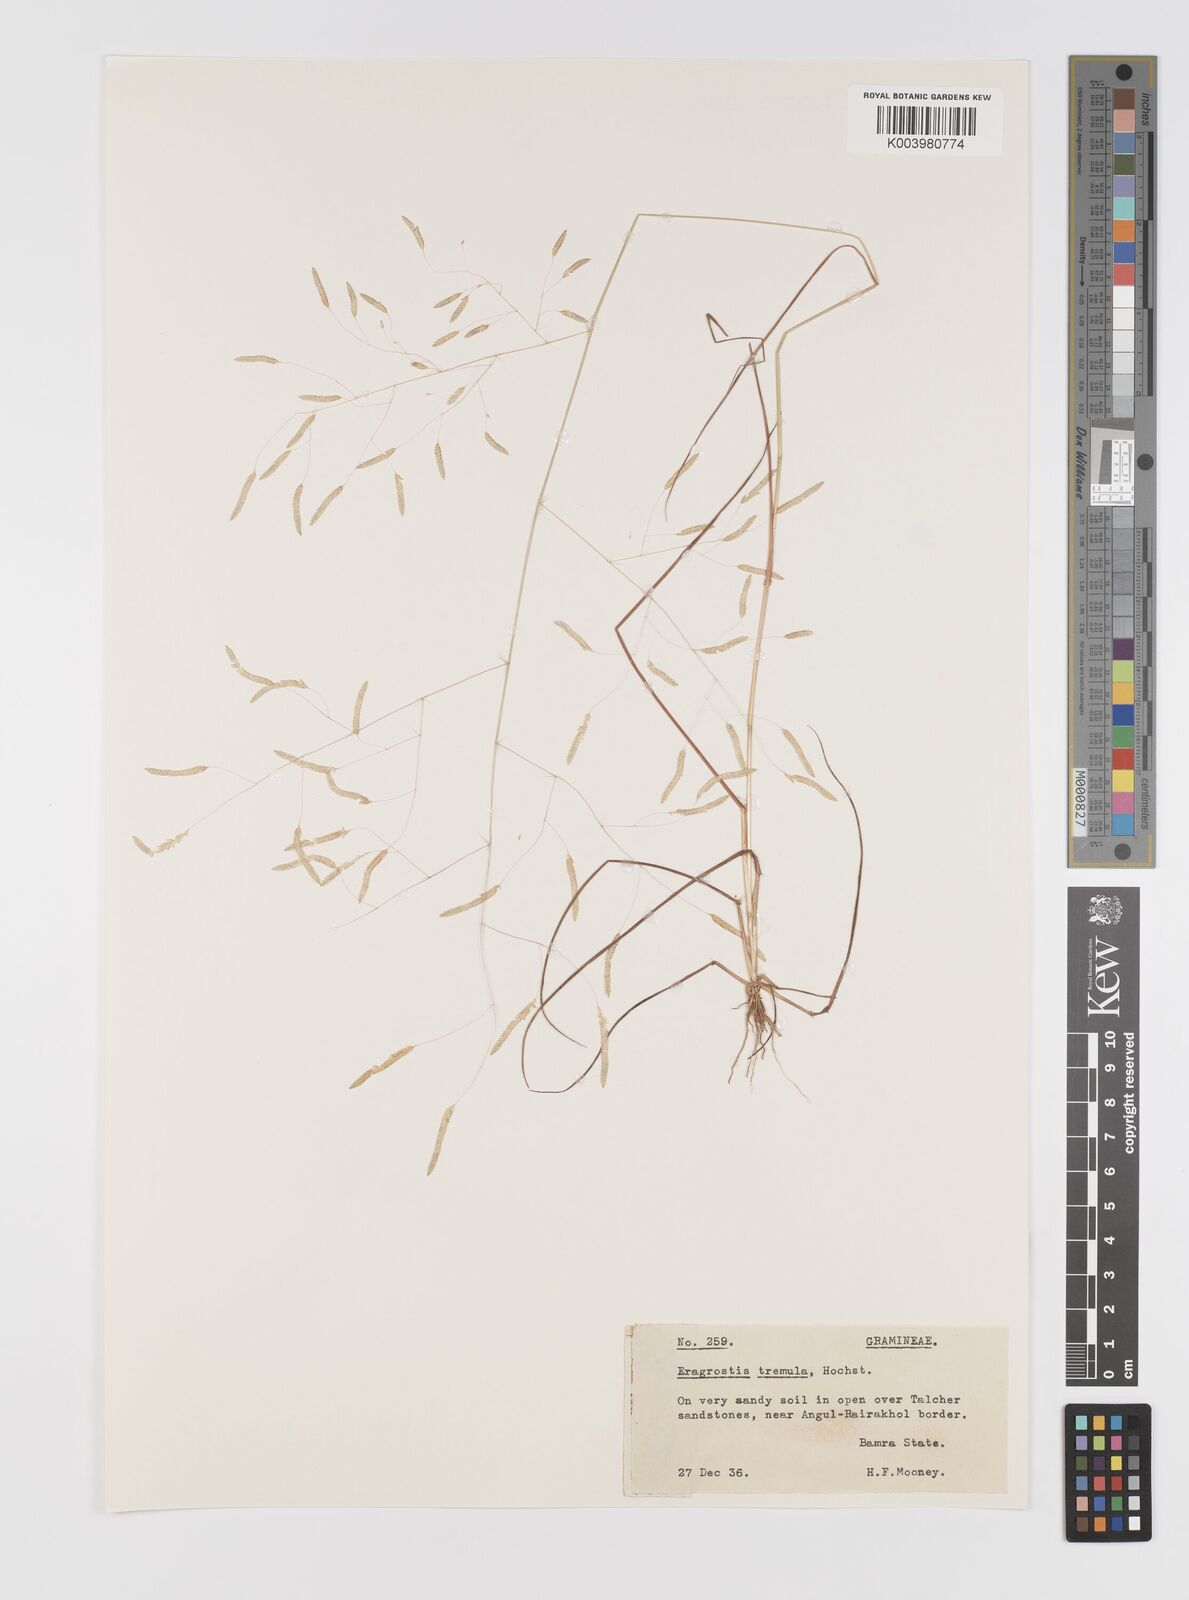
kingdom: Plantae
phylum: Tracheophyta
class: Liliopsida
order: Poales
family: Poaceae
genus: Eragrostis
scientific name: Eragrostis tremula
